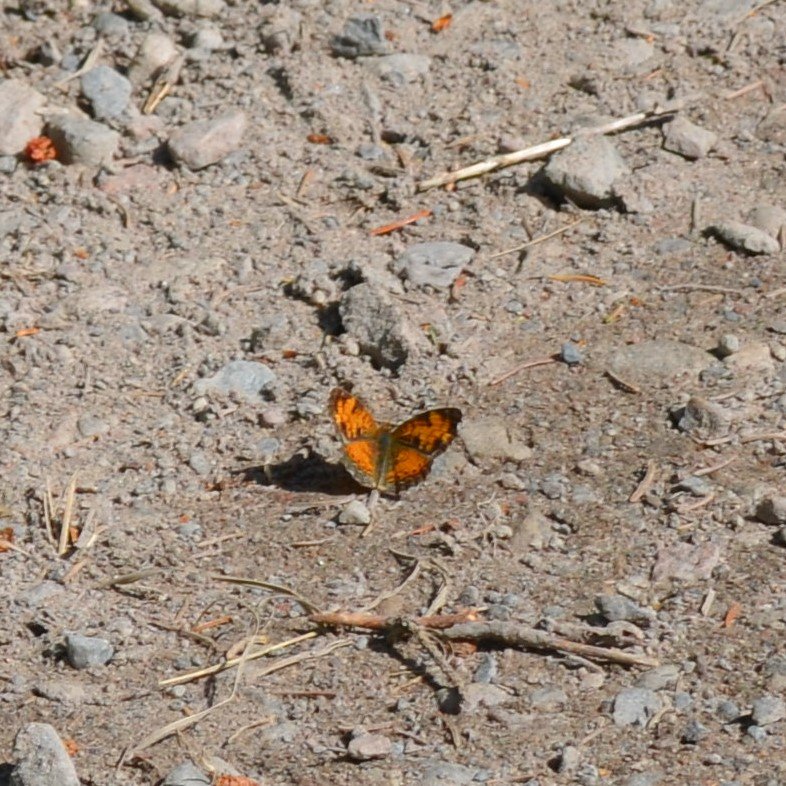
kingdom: Animalia
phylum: Arthropoda
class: Insecta
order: Lepidoptera
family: Nymphalidae
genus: Phyciodes
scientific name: Phyciodes tharos
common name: Northern Crescent
